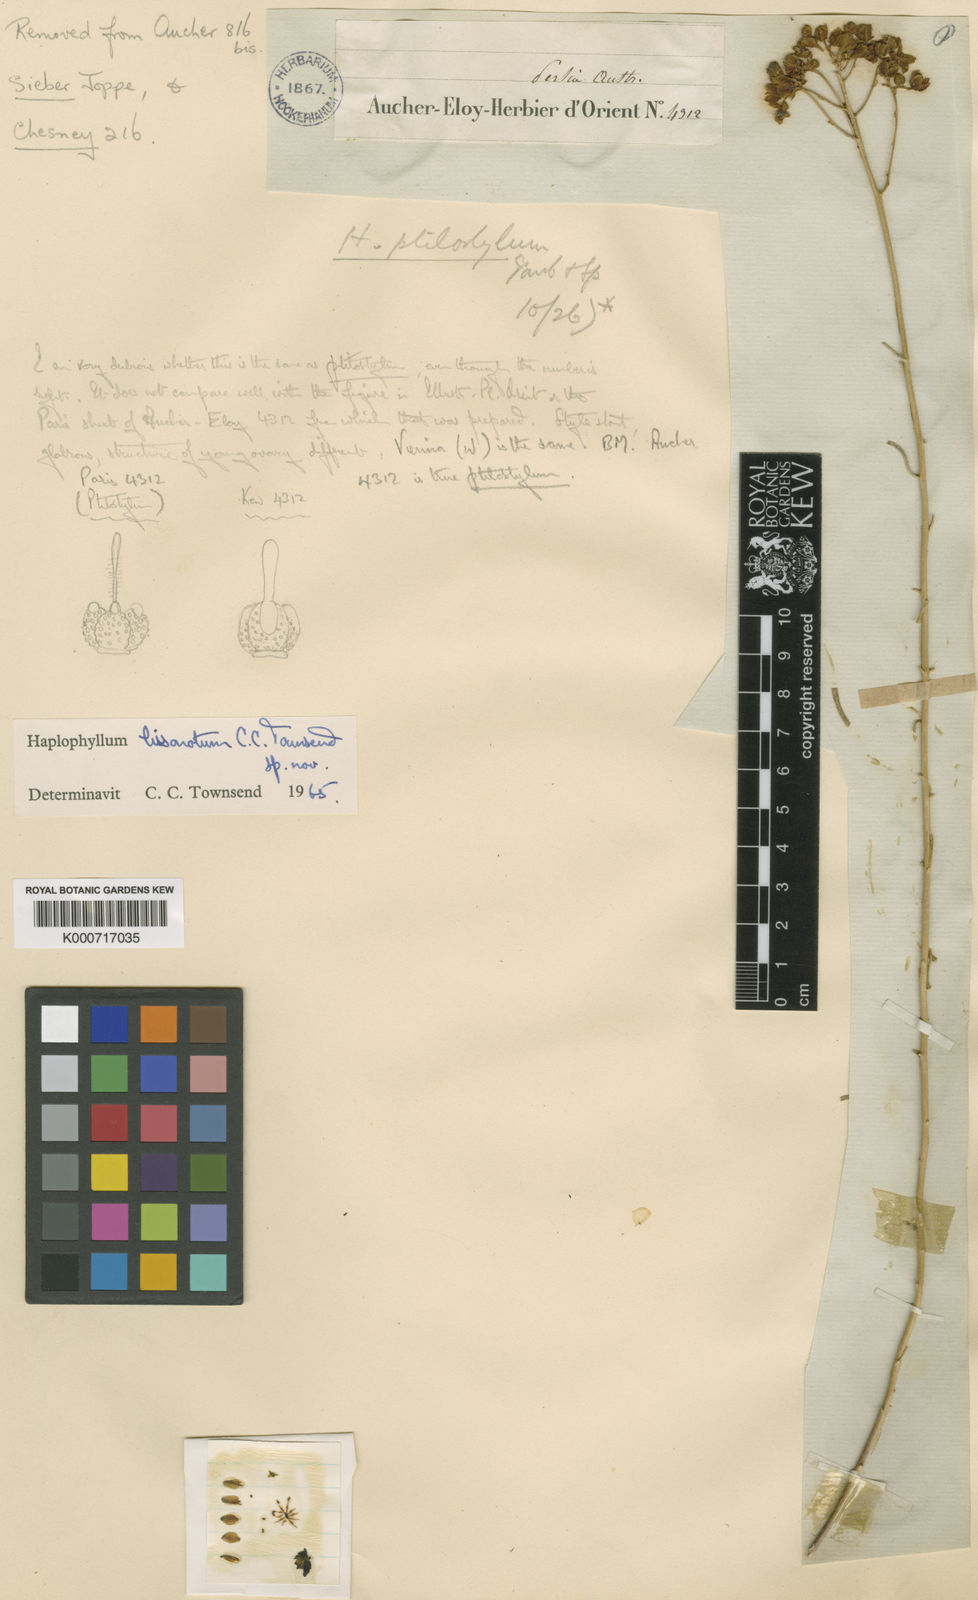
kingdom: Plantae
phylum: Tracheophyta
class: Magnoliopsida
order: Sapindales
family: Rutaceae
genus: Haplophyllum
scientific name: Haplophyllum lissonotum
